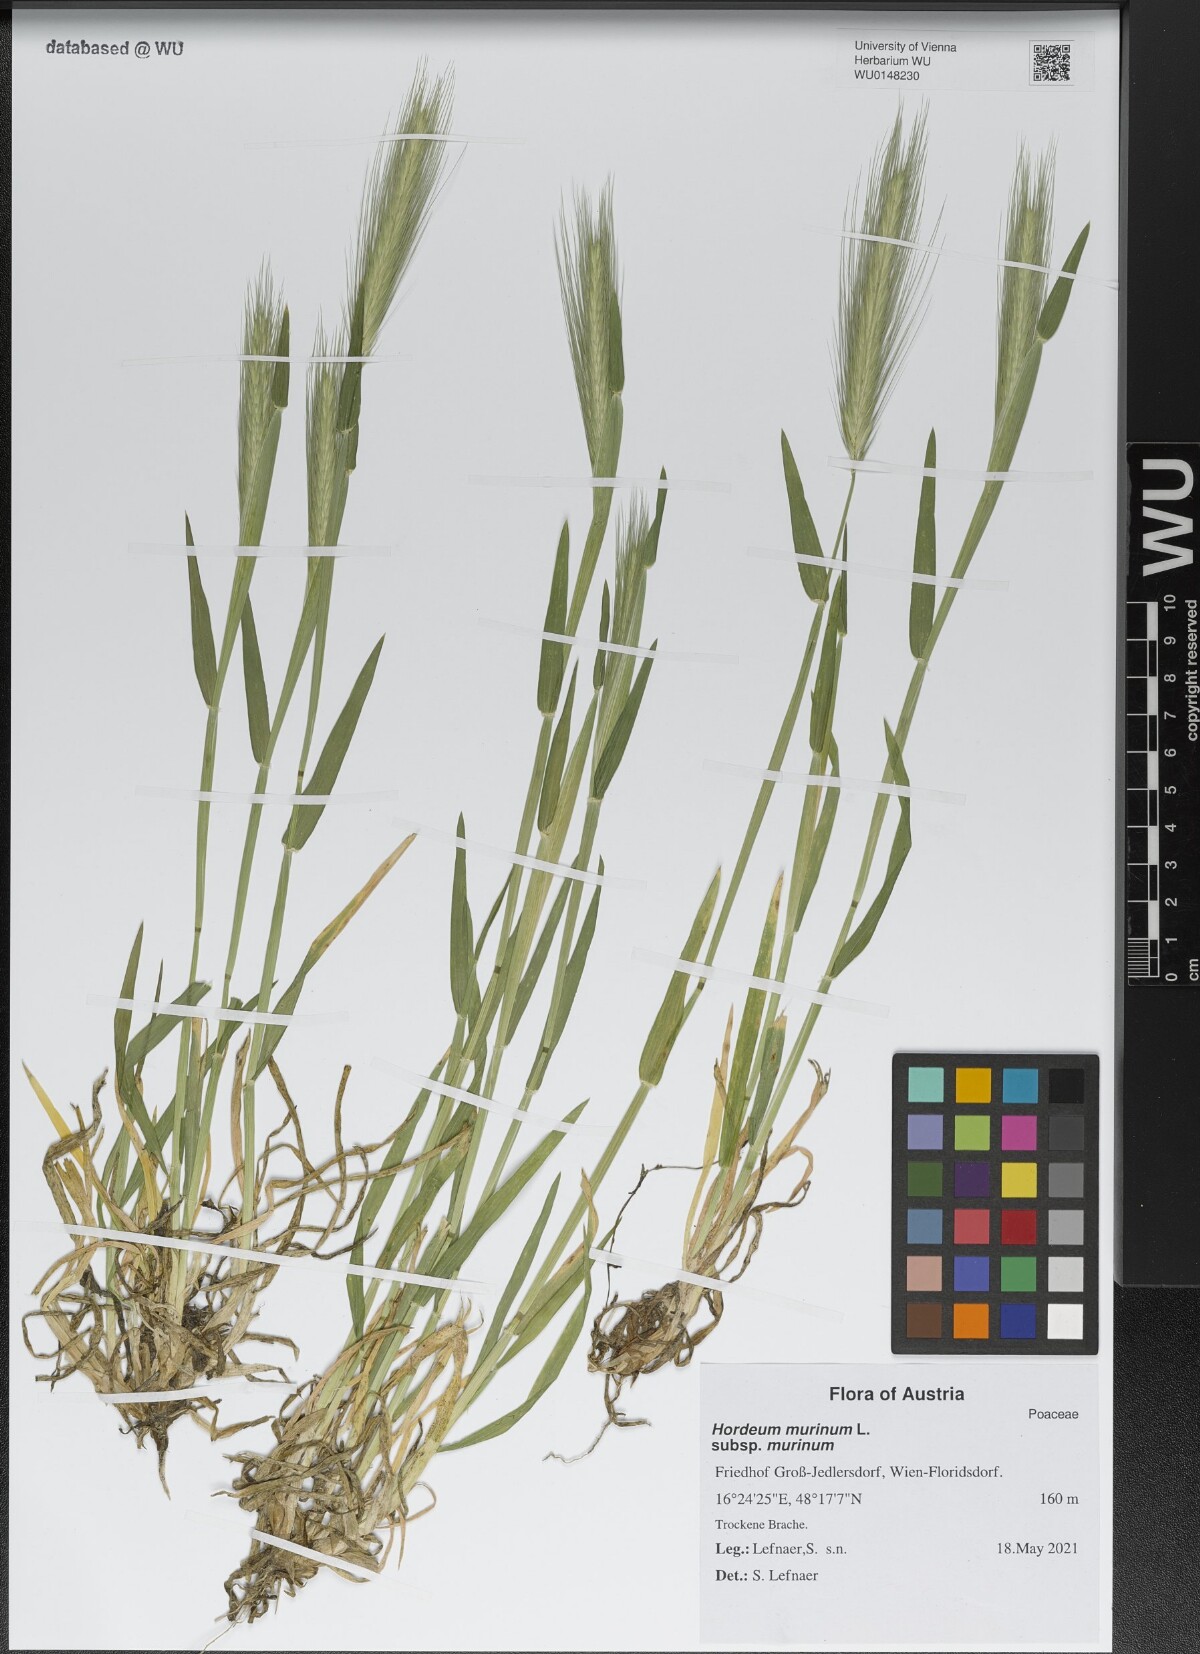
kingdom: Plantae
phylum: Tracheophyta
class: Liliopsida
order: Poales
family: Poaceae
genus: Hordeum
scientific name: Hordeum murinum
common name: Wall barley
